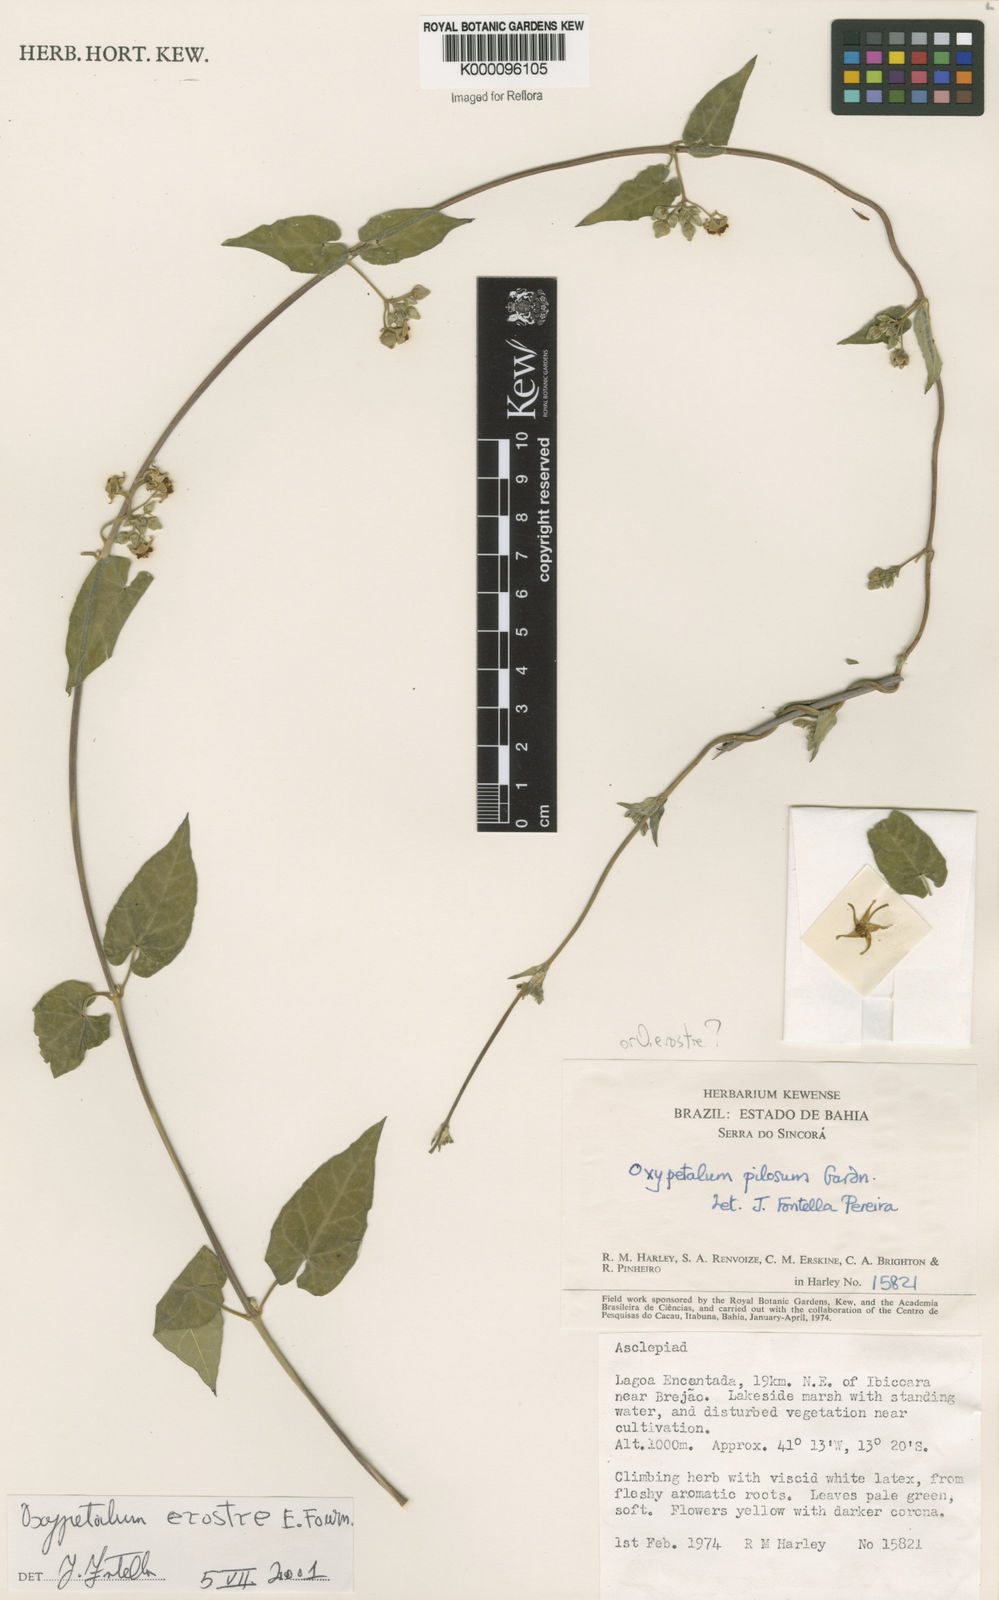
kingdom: Plantae
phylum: Tracheophyta
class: Magnoliopsida
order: Gentianales
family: Apocynaceae
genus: Oxypetalum
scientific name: Oxypetalum erostre
